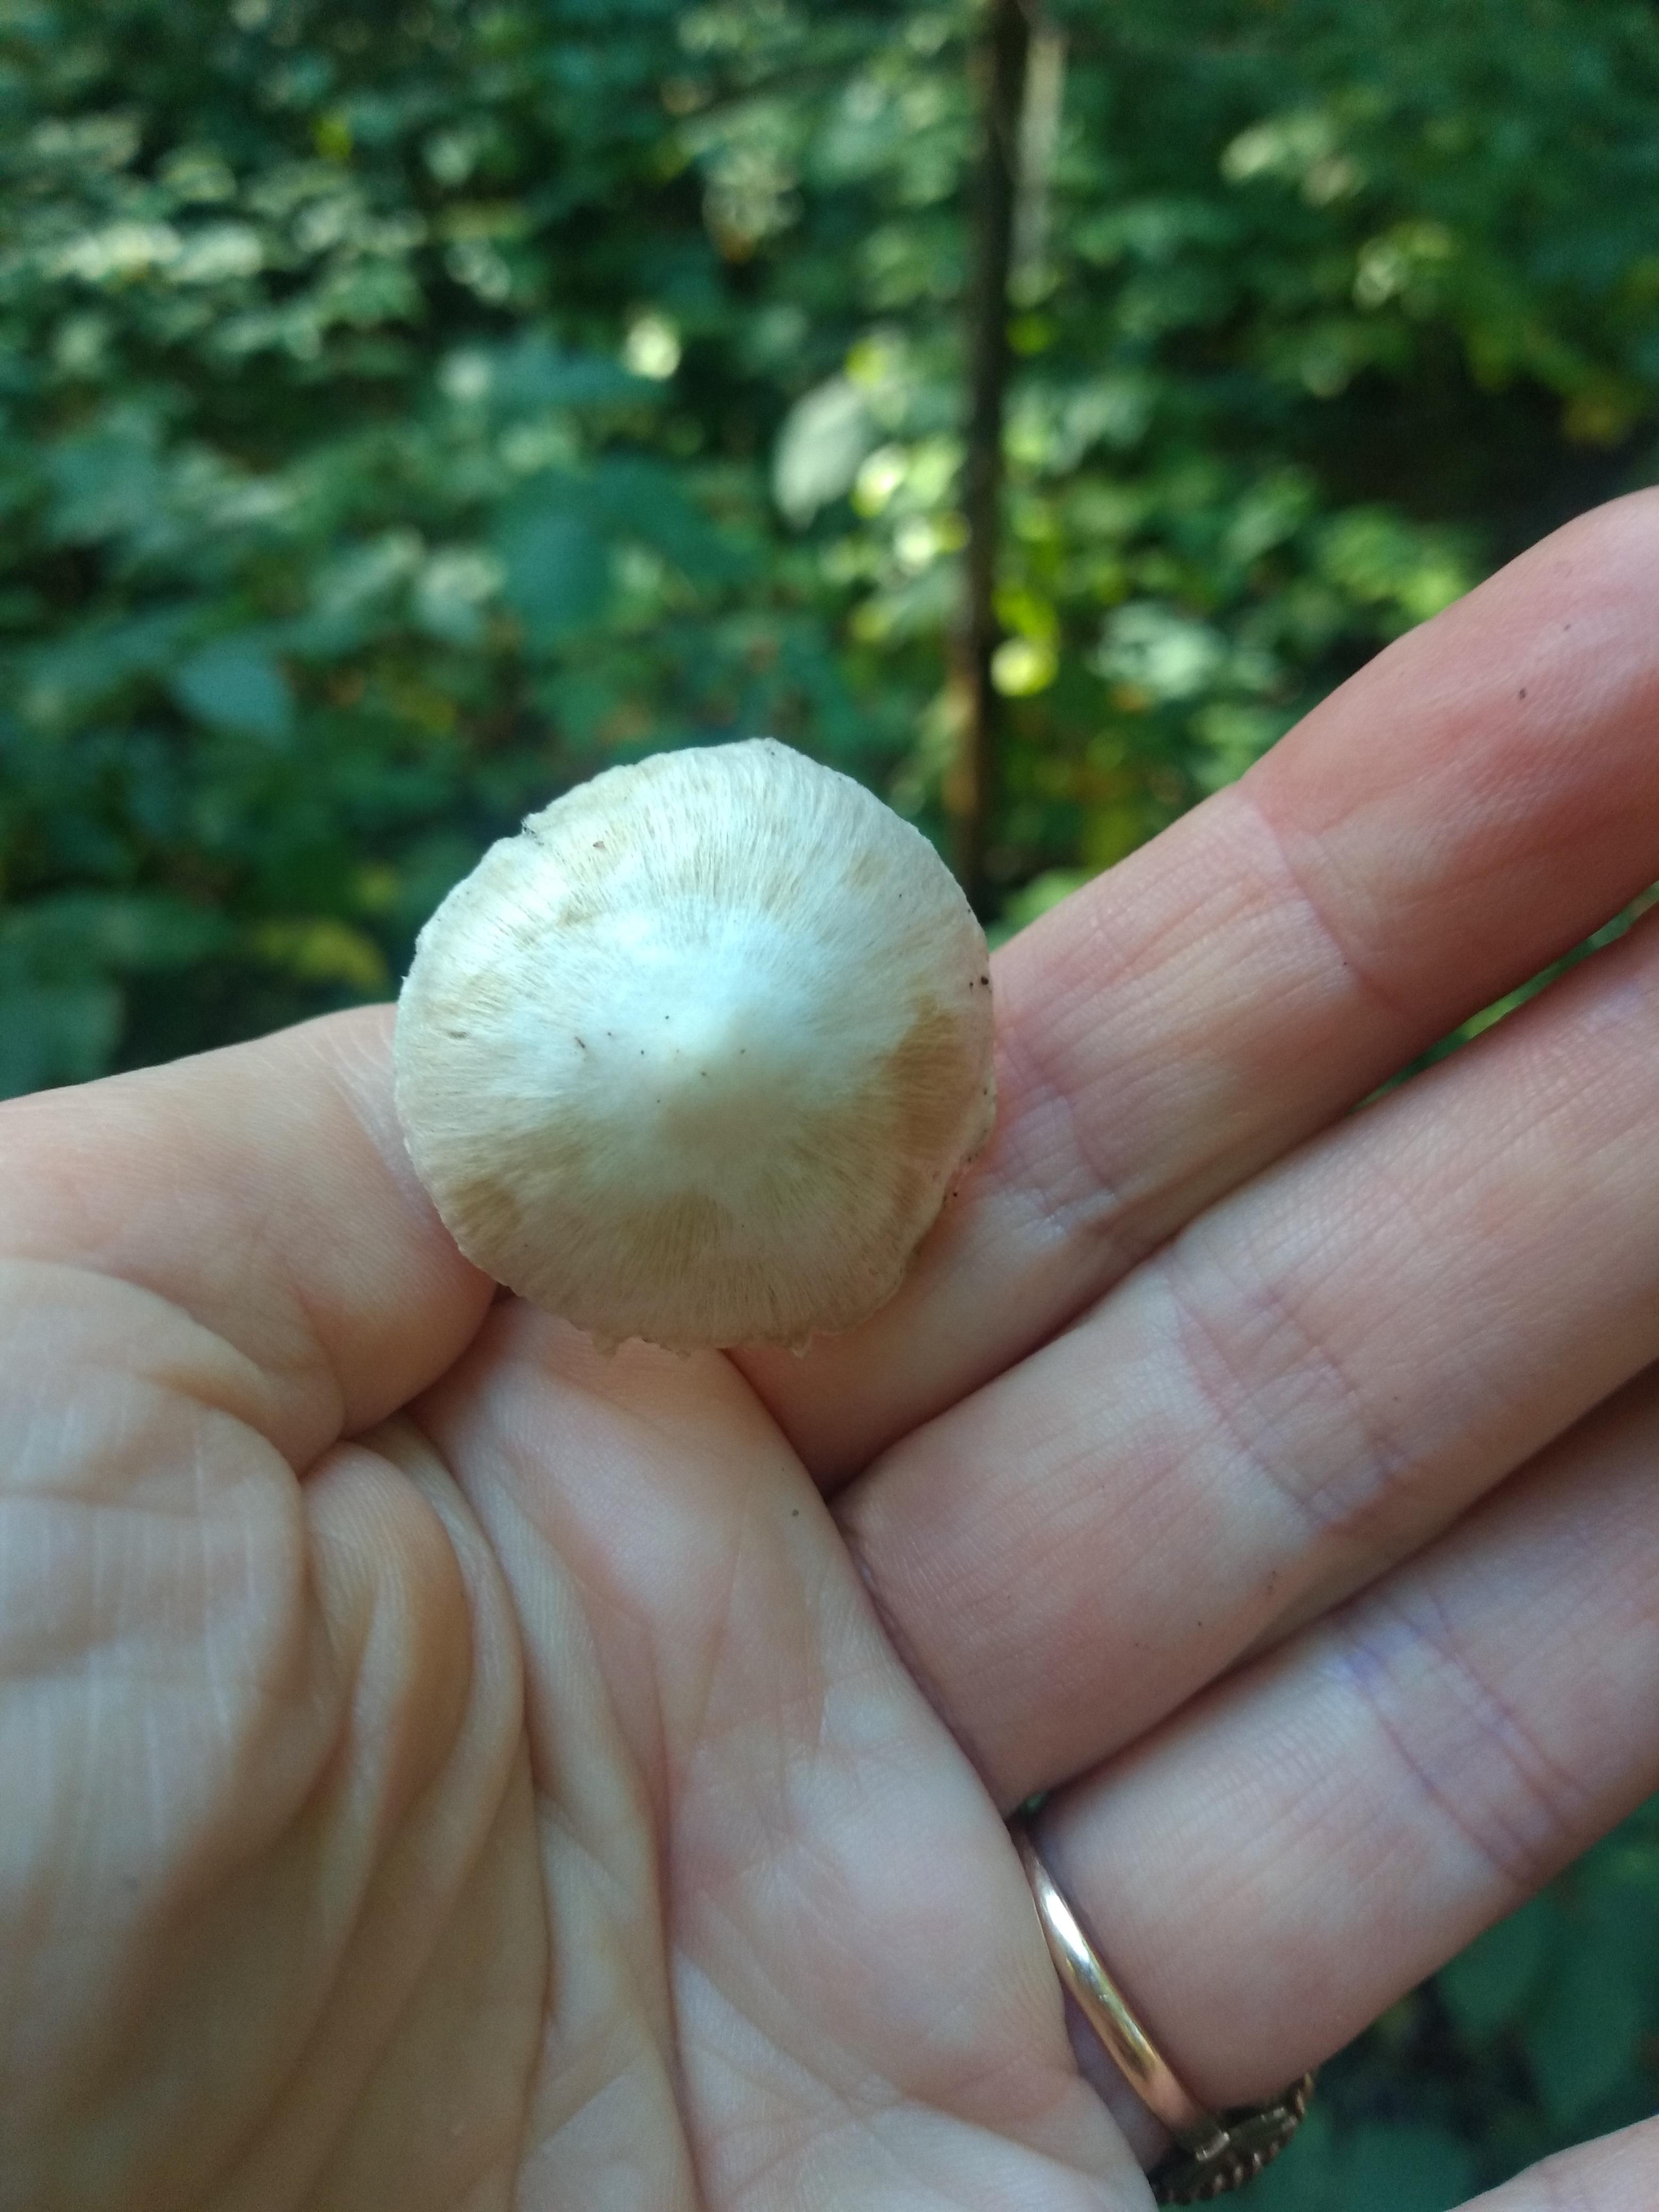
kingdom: Fungi
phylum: Basidiomycota
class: Agaricomycetes
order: Agaricales
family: Inocybaceae
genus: Inocybe
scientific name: Inocybe
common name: almindelig trævlhat
